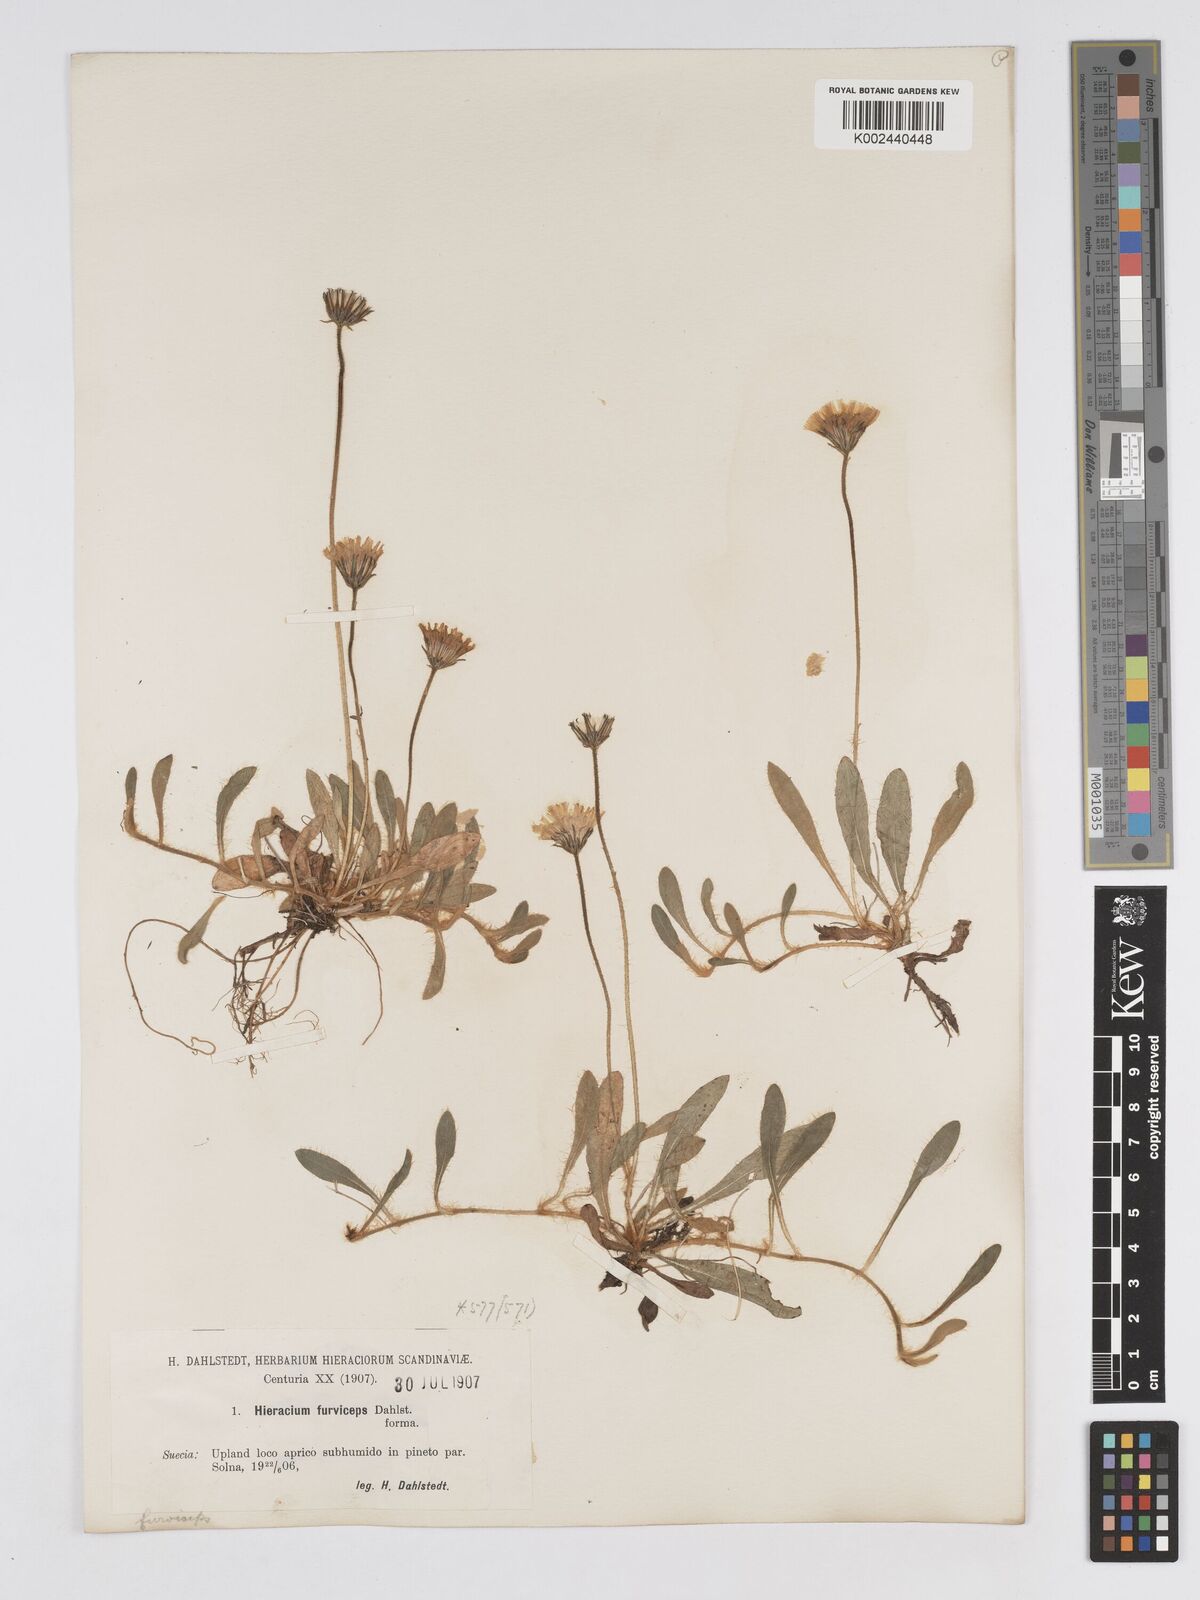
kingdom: Plantae
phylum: Tracheophyta
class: Magnoliopsida
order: Asterales
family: Asteraceae
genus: Pilosella
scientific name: Pilosella officinarum
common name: Mouse-ear hawkweed
